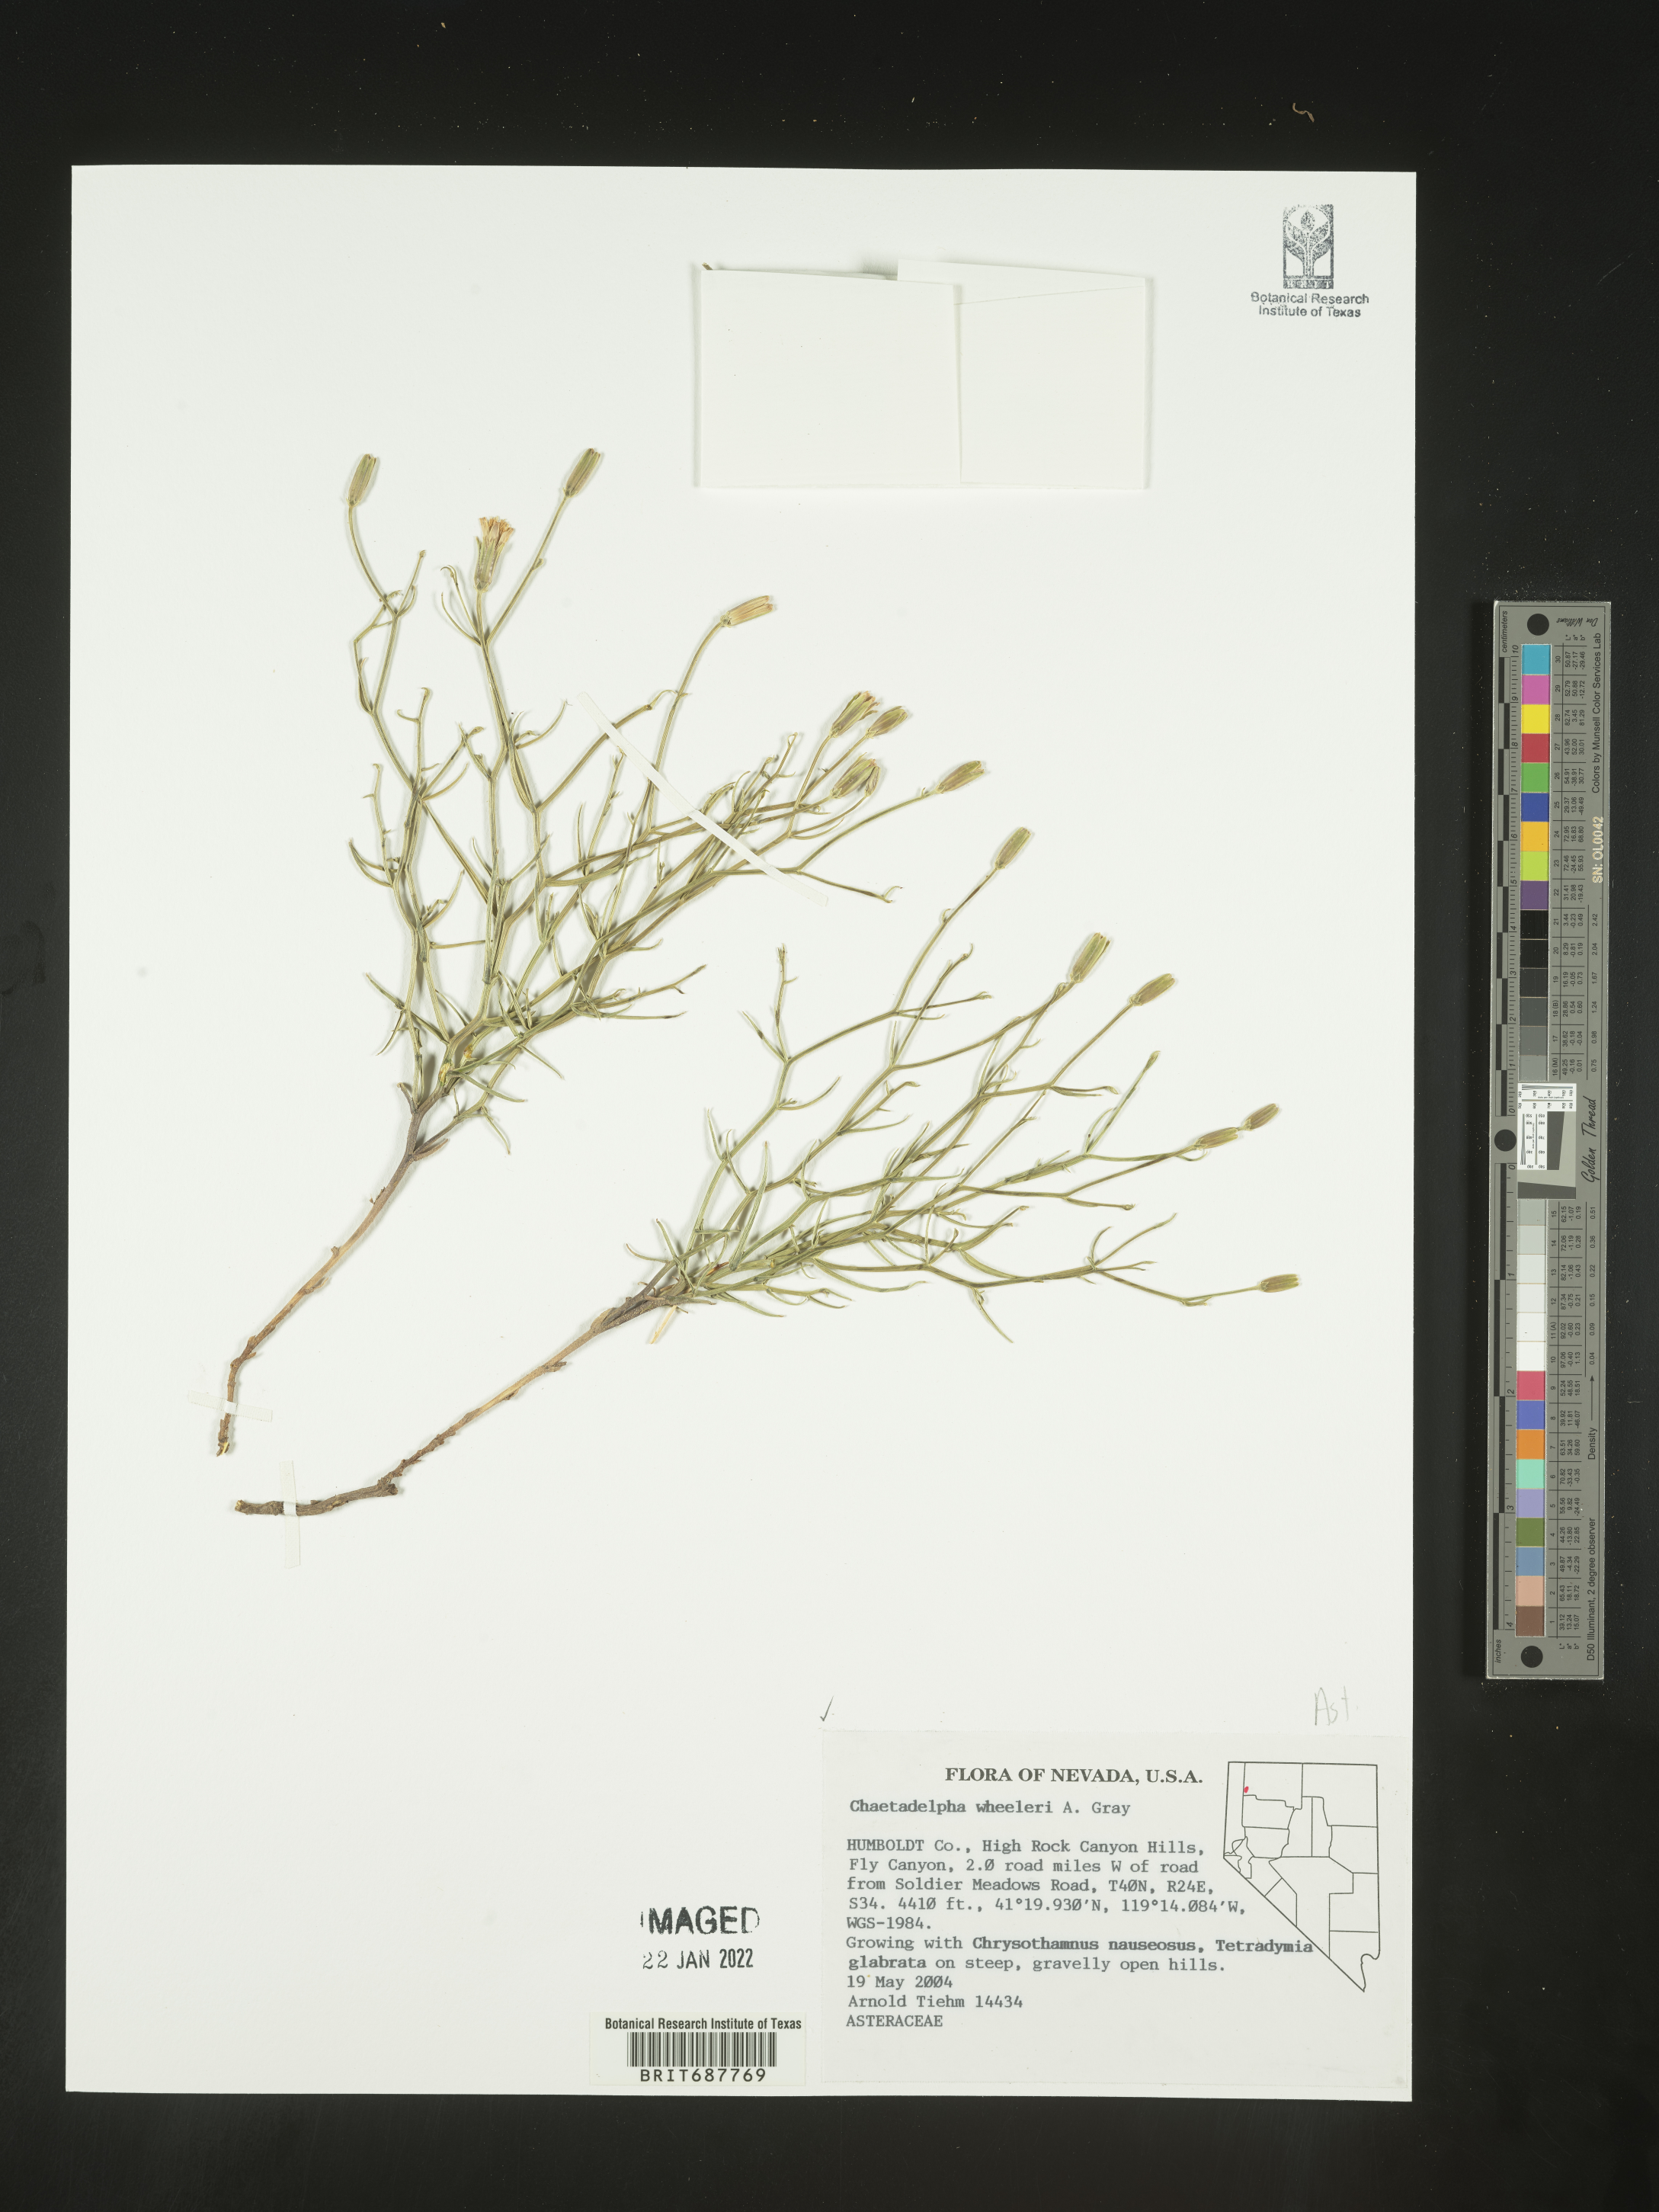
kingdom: Plantae
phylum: Tracheophyta
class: Magnoliopsida
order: Asterales
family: Asteraceae
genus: Chaetadelpha
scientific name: Chaetadelpha wheeleri
